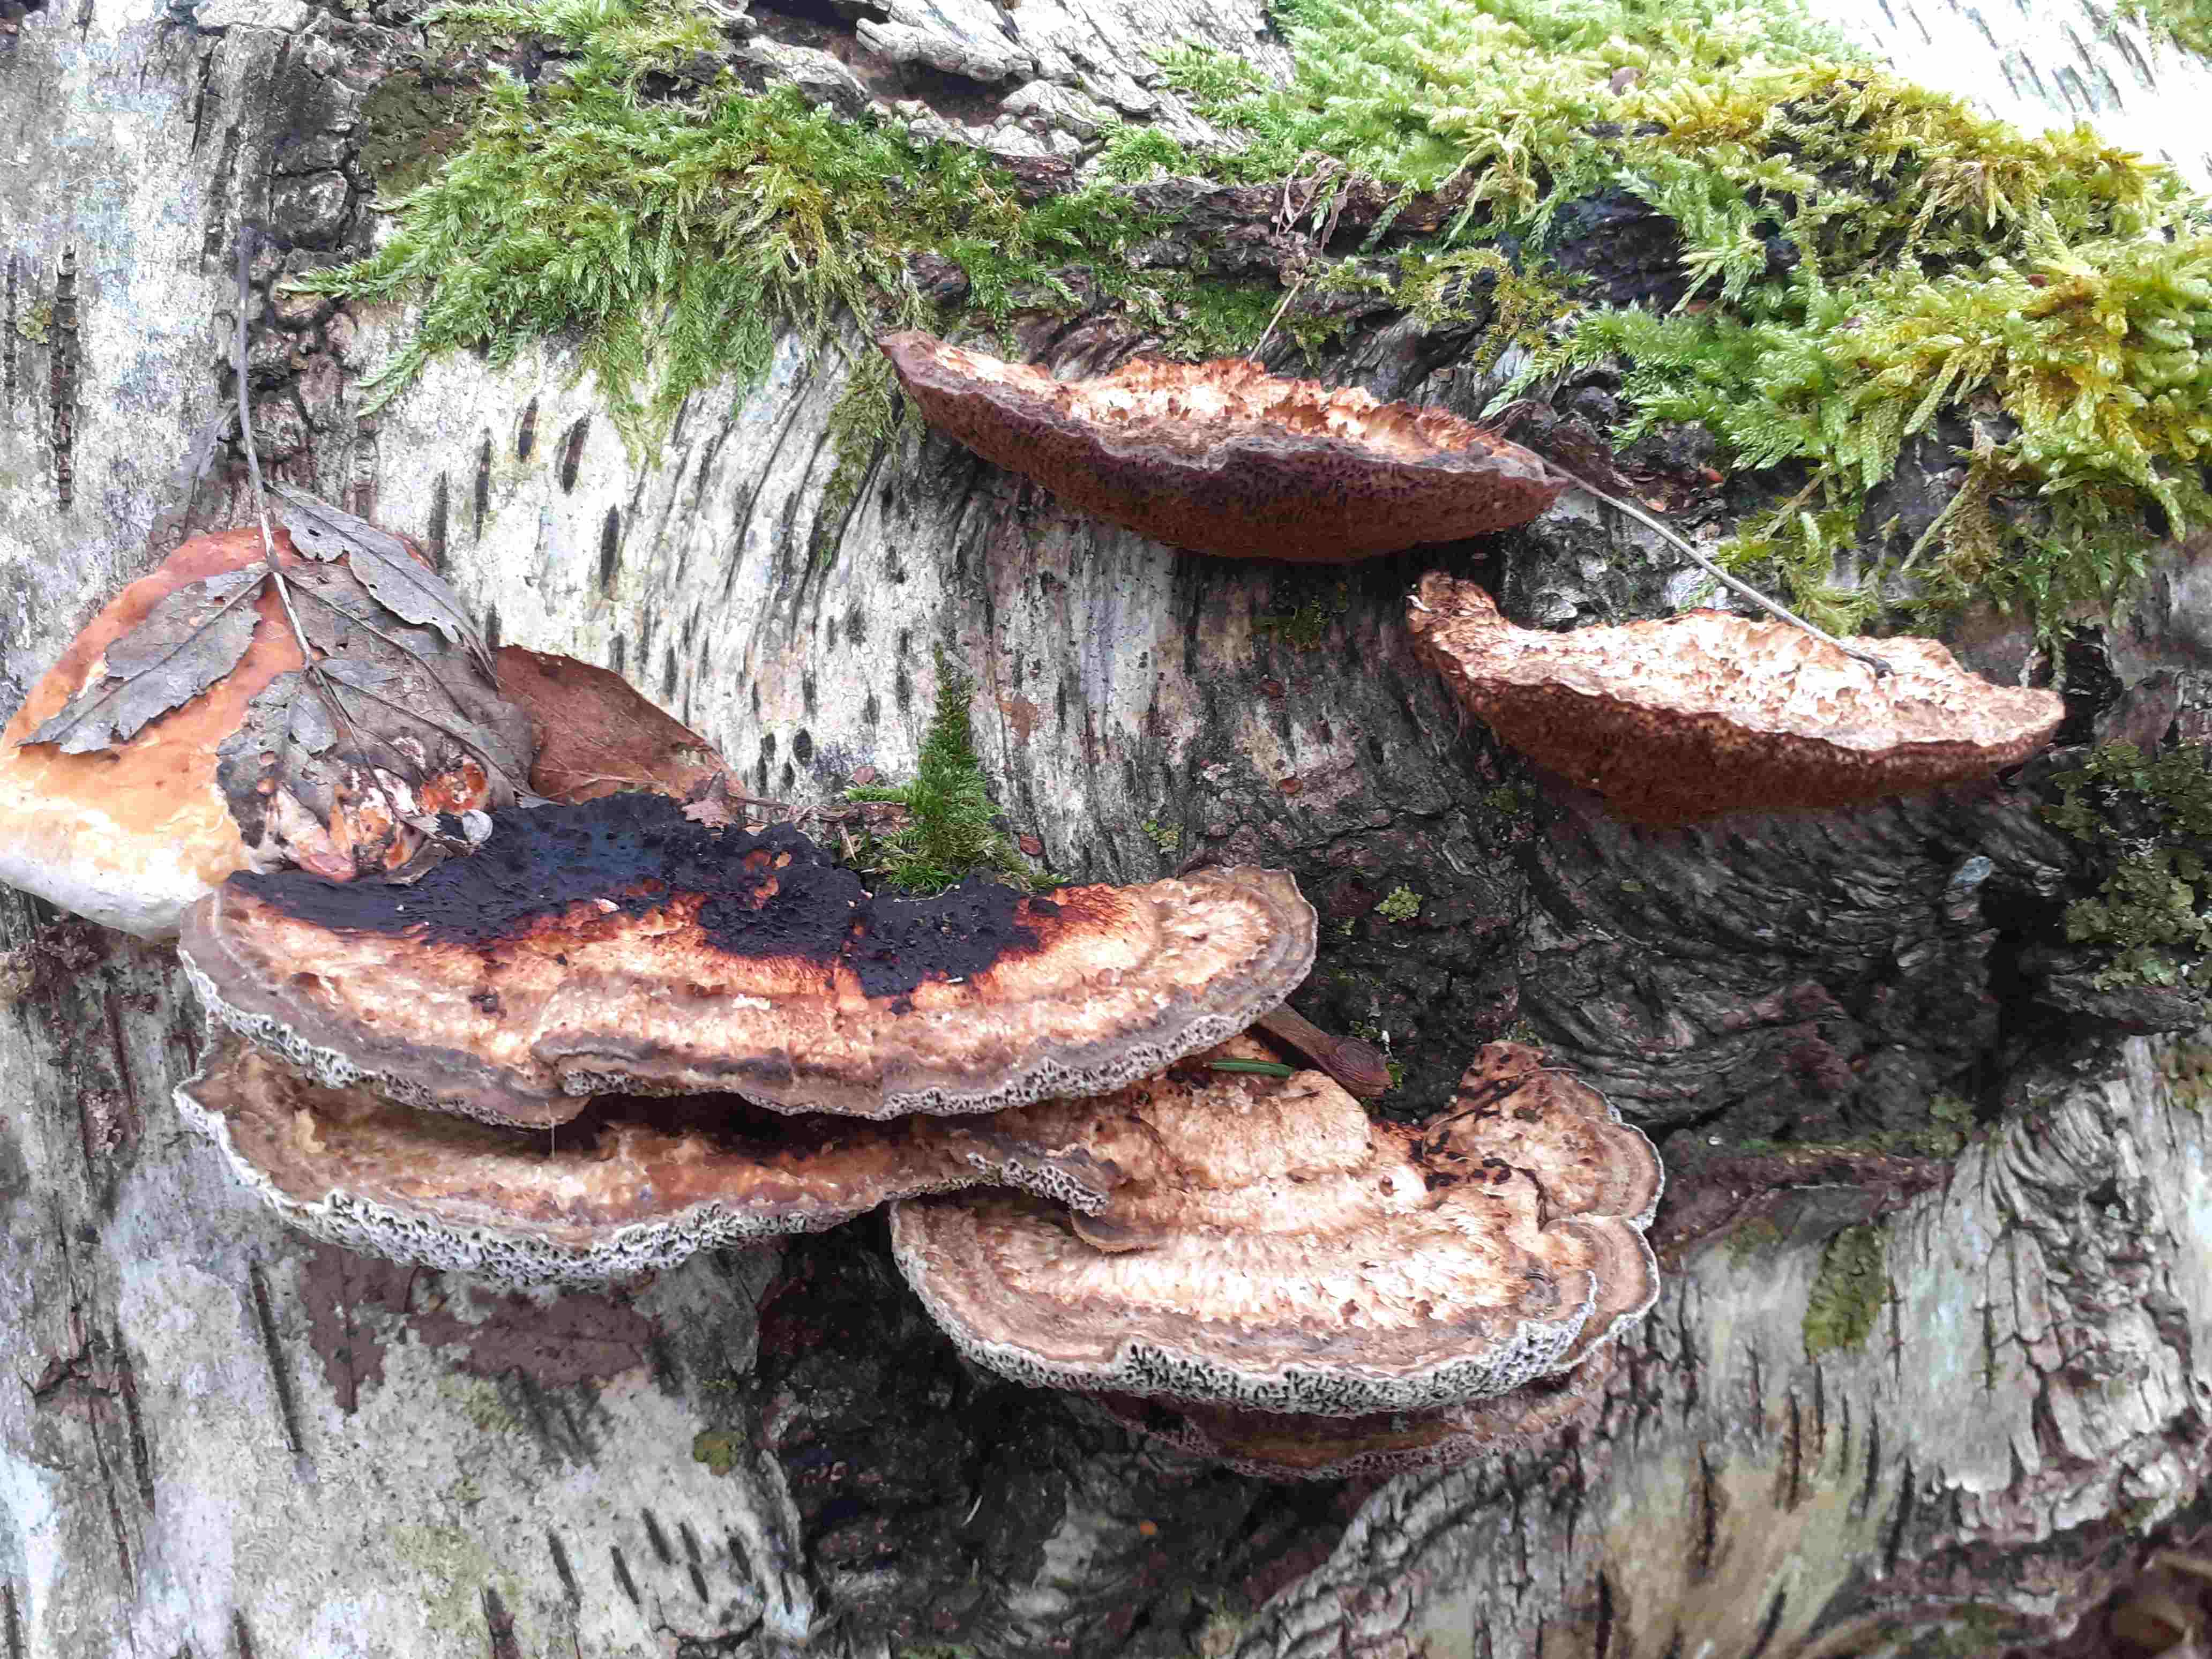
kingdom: Fungi
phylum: Basidiomycota
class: Agaricomycetes
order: Polyporales
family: Polyporaceae
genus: Daedaleopsis
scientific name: Daedaleopsis confragosa
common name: rødmende læderporesvamp
